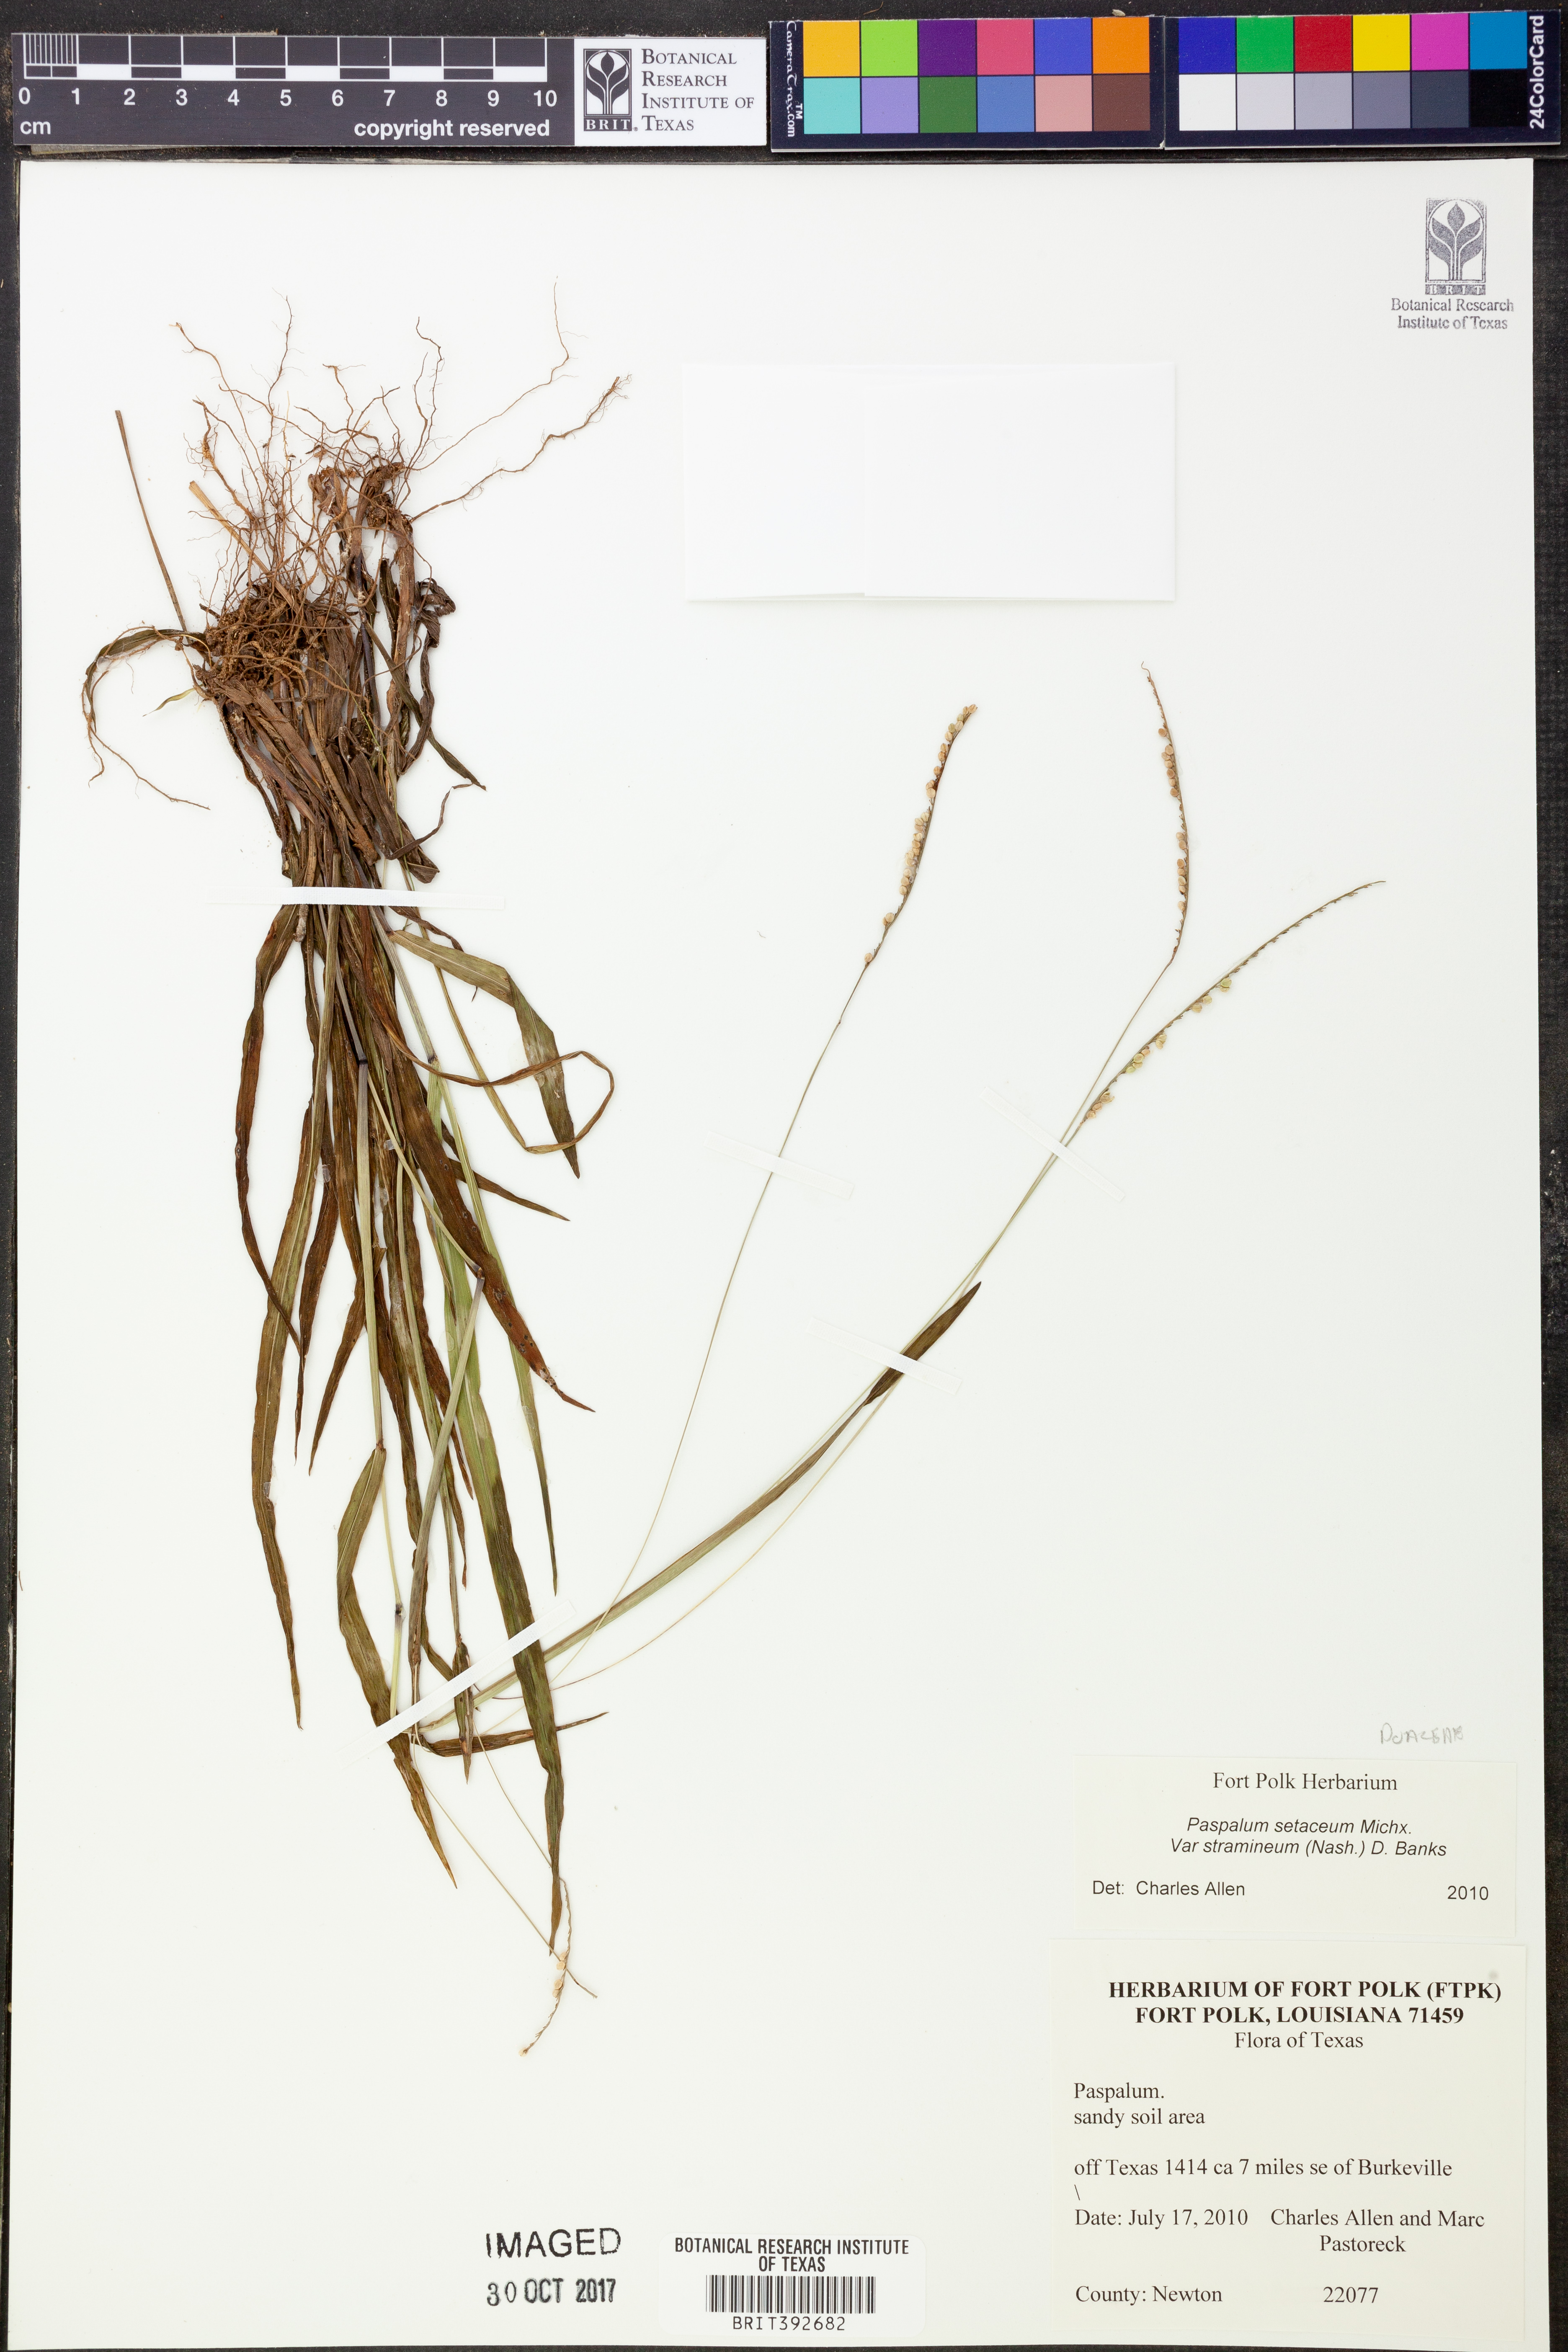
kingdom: Plantae
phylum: Tracheophyta
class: Liliopsida
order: Poales
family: Poaceae
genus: Paspalum
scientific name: Paspalum setaceum
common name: Slender paspalum
